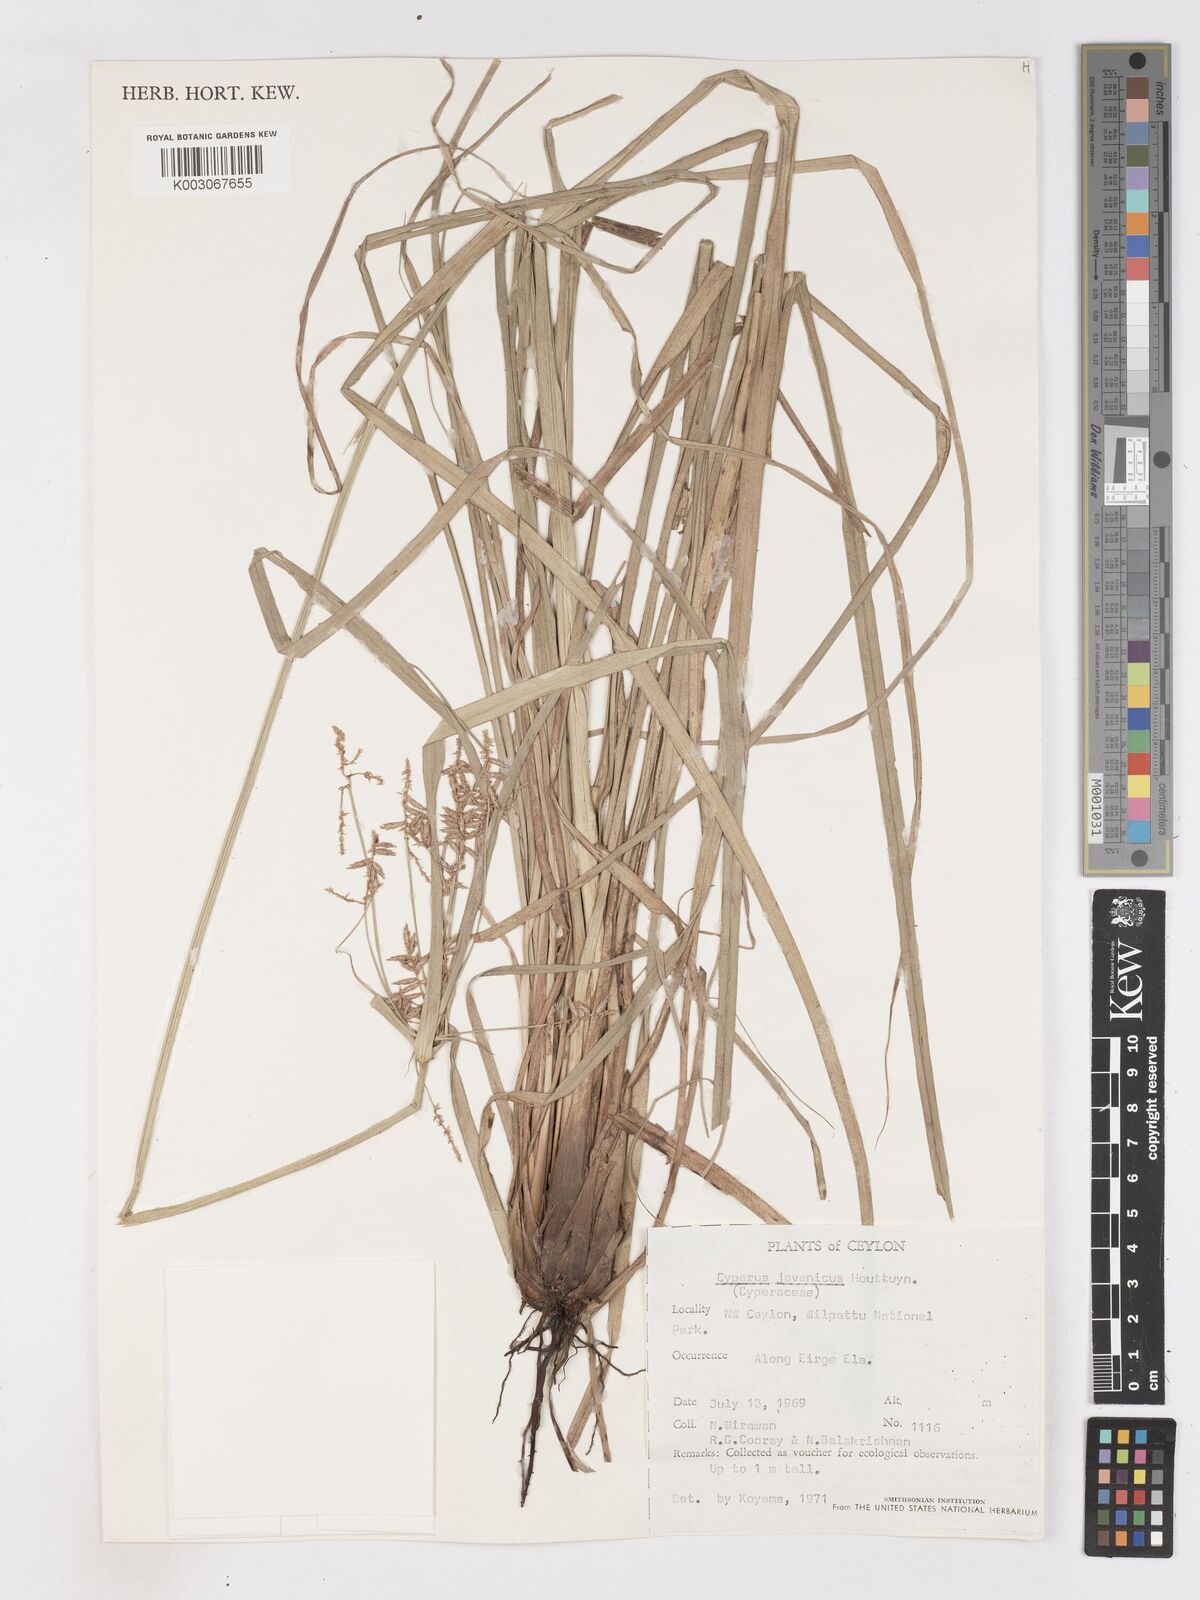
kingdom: Plantae
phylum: Tracheophyta
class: Liliopsida
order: Poales
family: Cyperaceae
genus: Cyperus
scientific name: Cyperus javanicus
